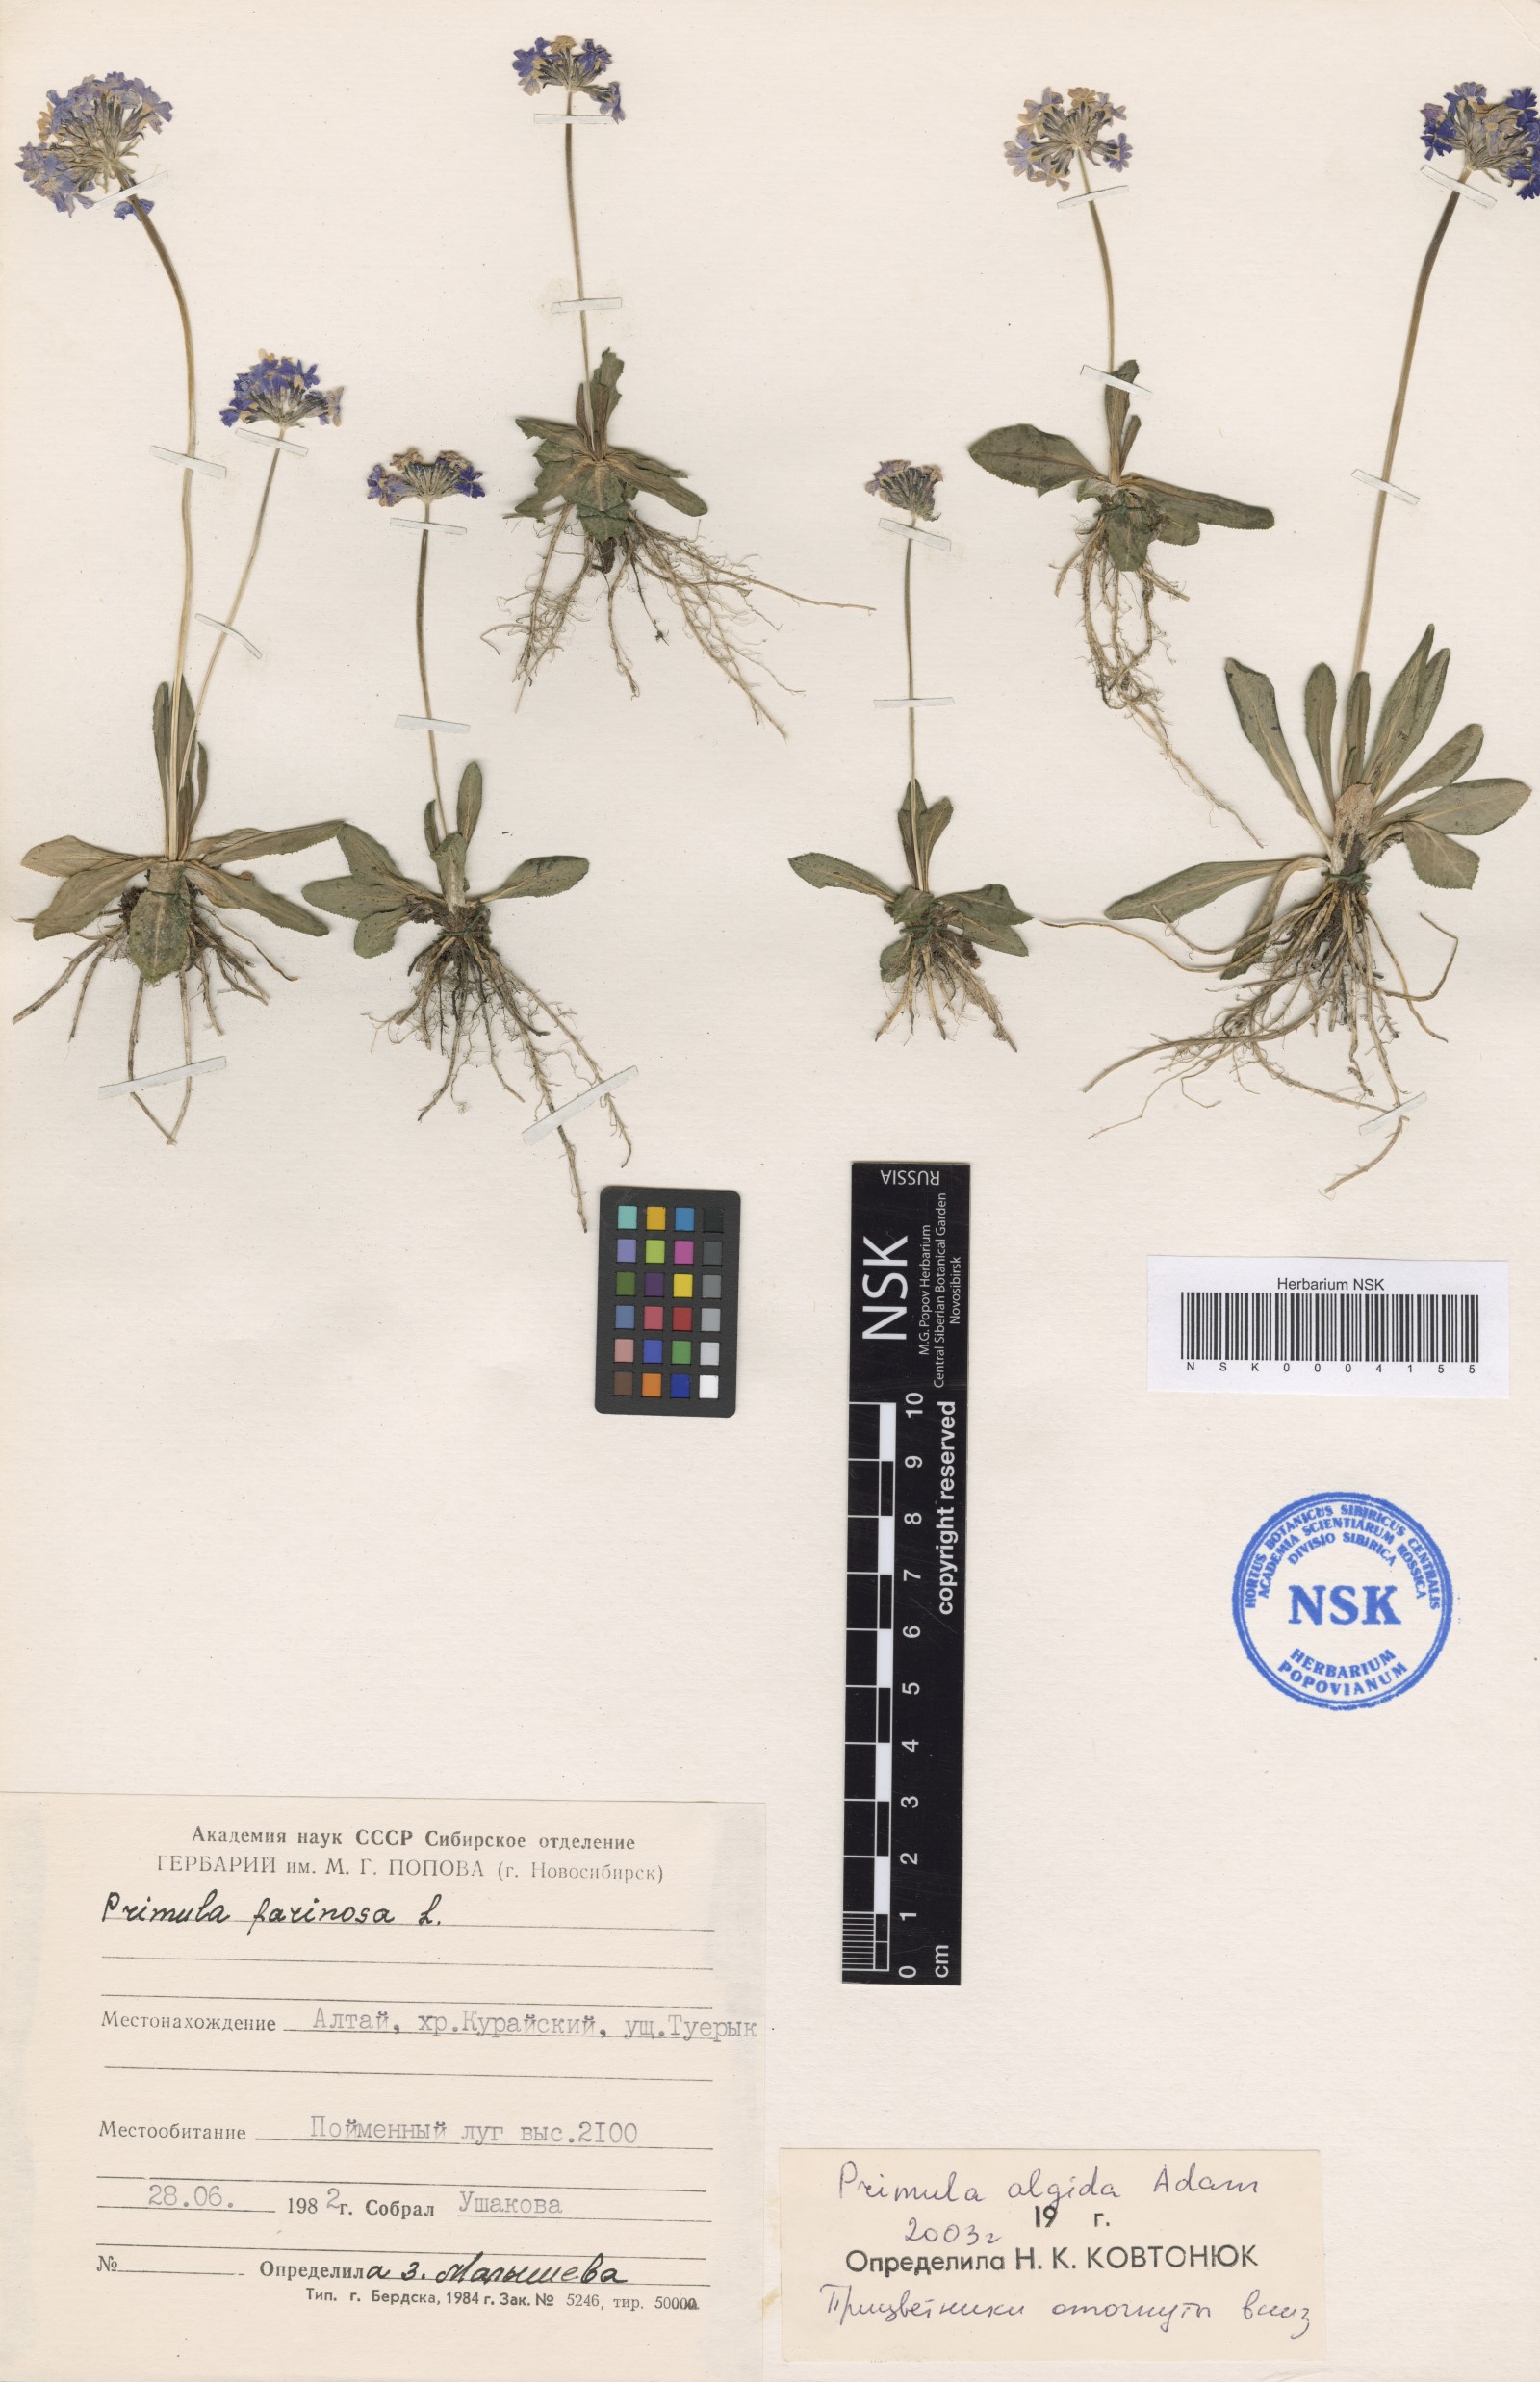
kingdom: Plantae
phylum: Tracheophyta
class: Magnoliopsida
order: Ericales
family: Primulaceae
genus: Primula
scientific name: Primula algida
